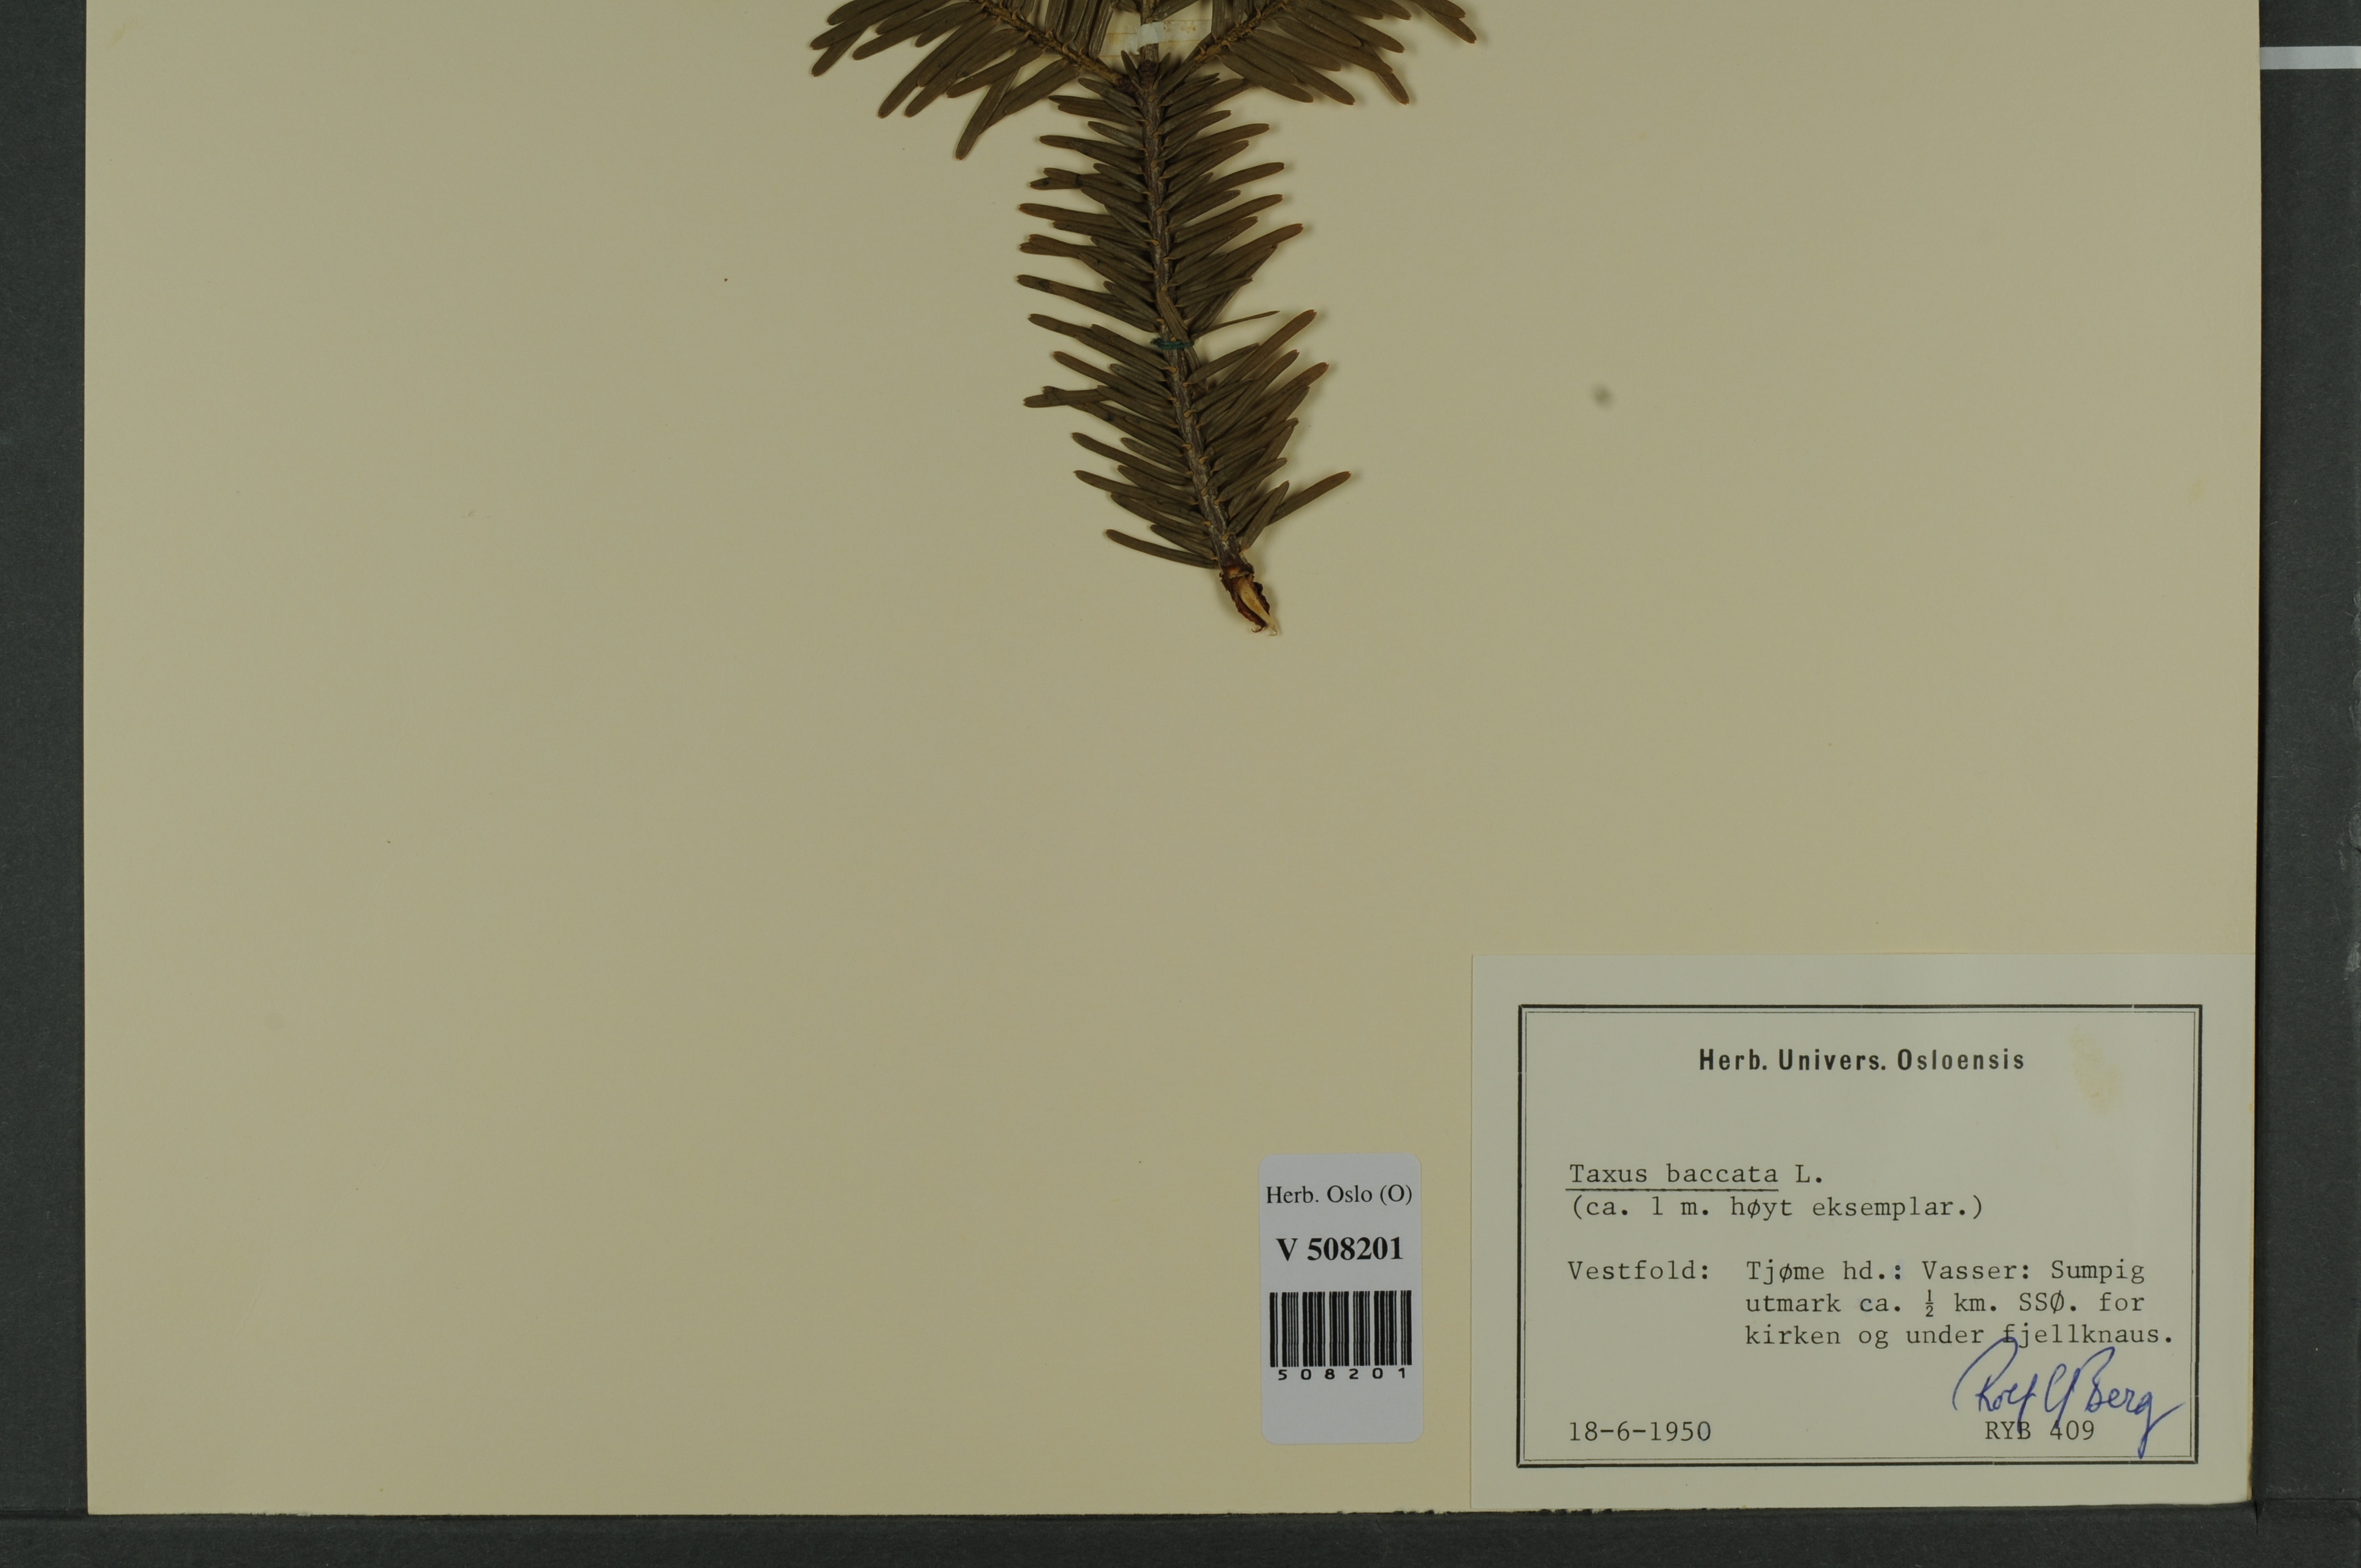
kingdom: Plantae
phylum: Tracheophyta
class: Pinopsida
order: Pinales
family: Taxaceae
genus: Taxus
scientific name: Taxus baccata
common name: Yew
